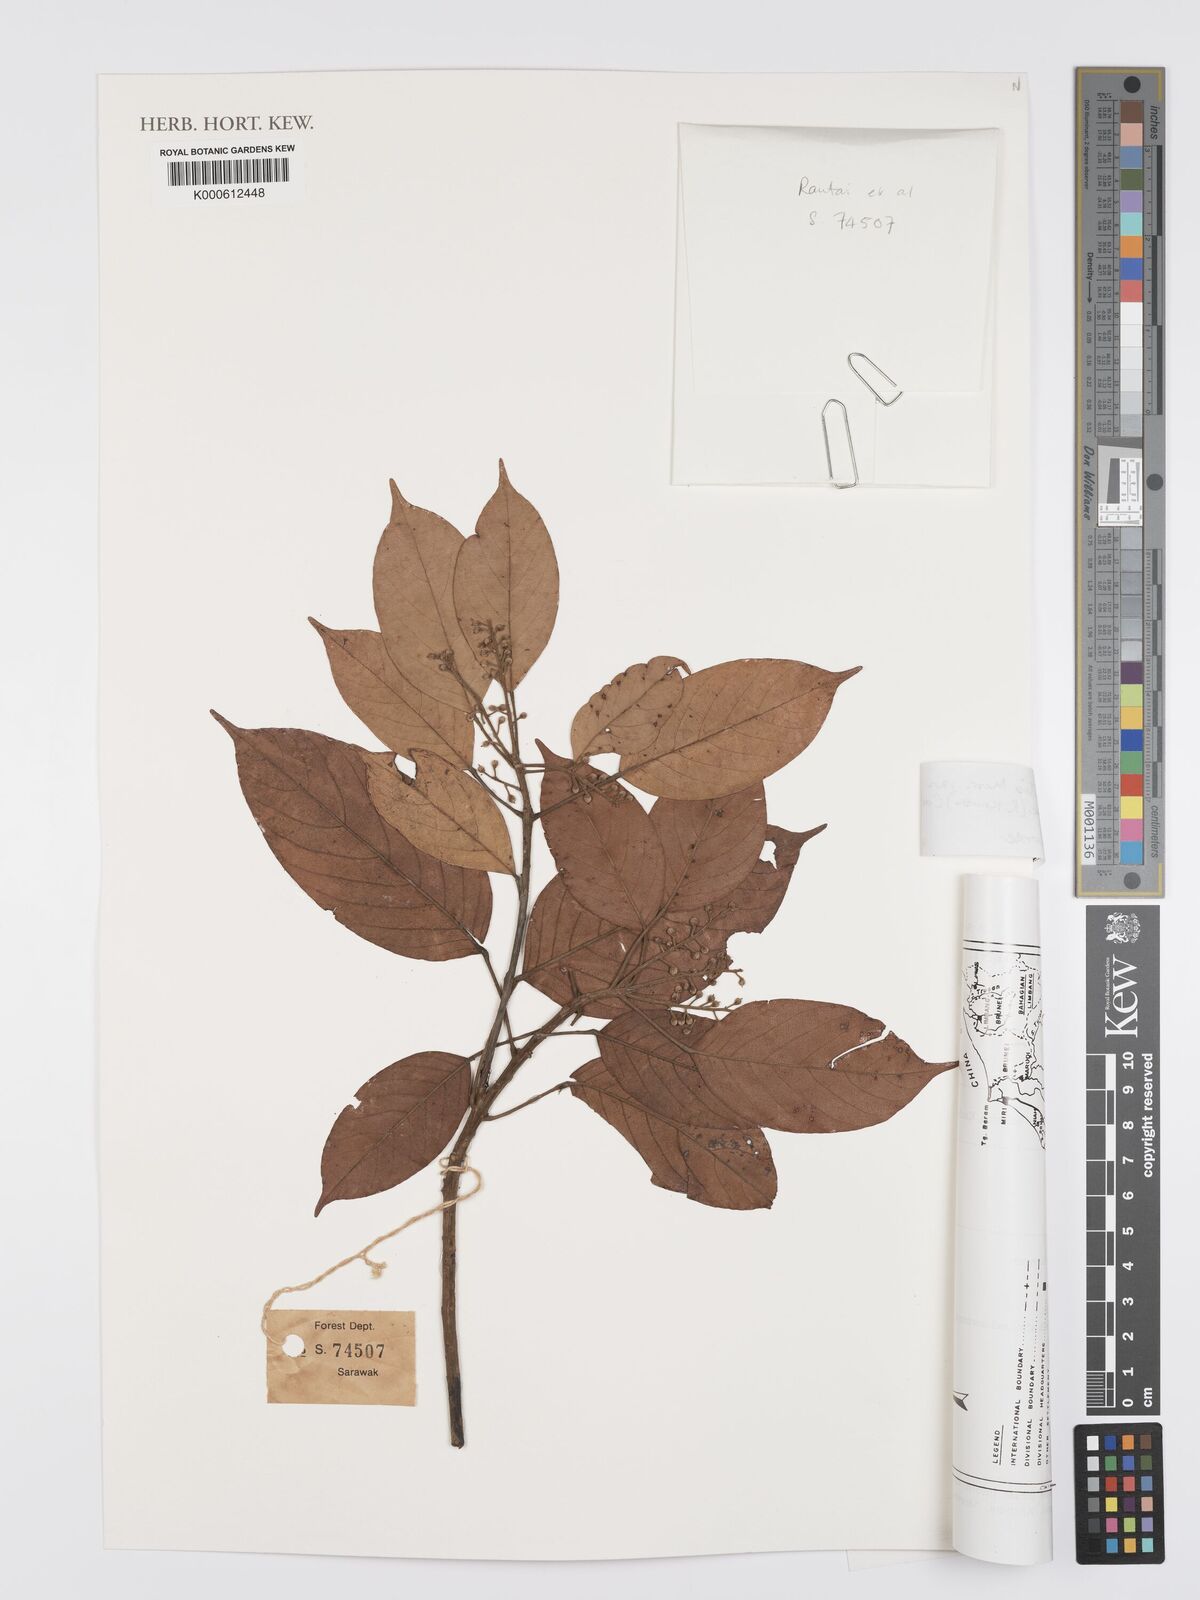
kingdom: Plantae
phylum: Tracheophyta
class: Magnoliopsida
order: Oxalidales
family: Elaeocarpaceae
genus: Elaeocarpus
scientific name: Elaeocarpus clementis
